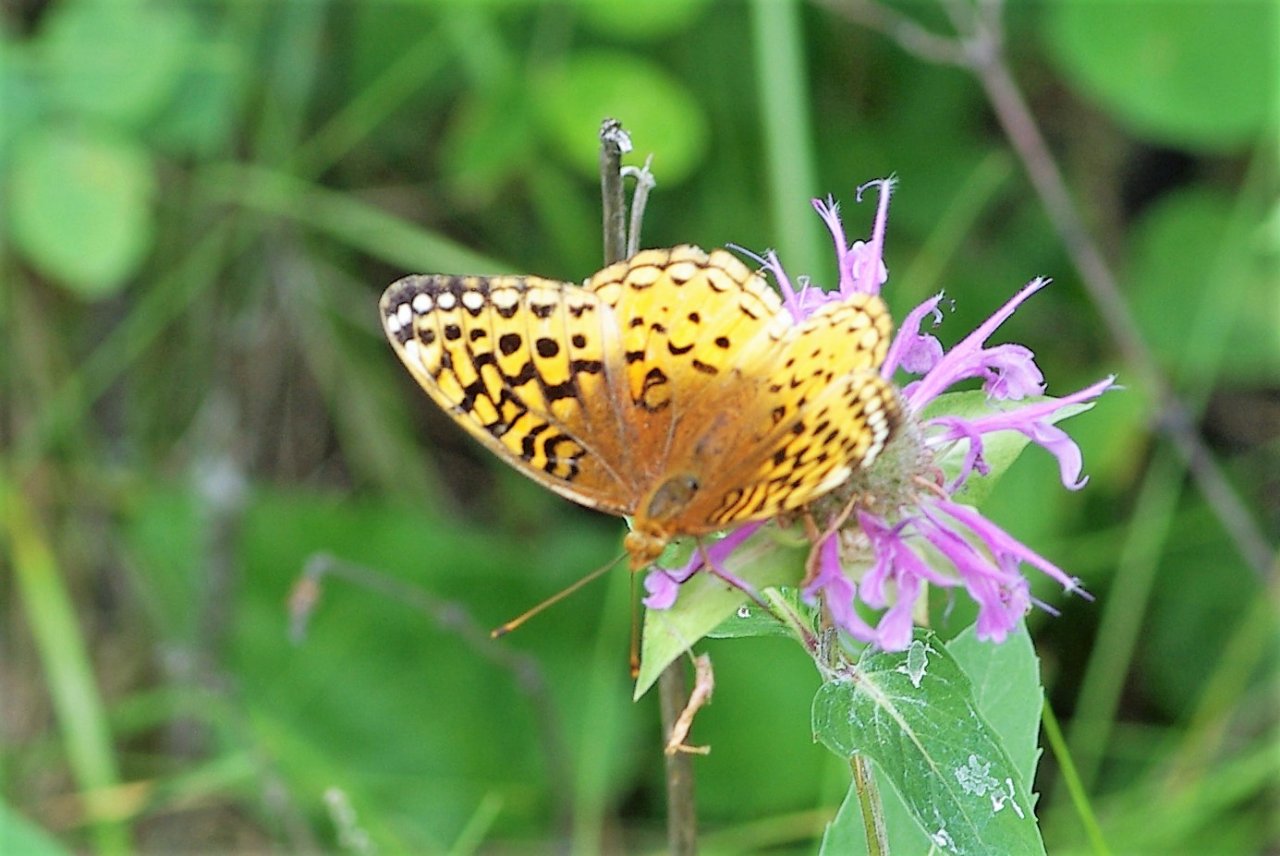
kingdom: Animalia
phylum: Arthropoda
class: Insecta
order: Lepidoptera
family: Nymphalidae
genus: Speyeria
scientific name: Speyeria cybele
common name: Great Spangled Fritillary
